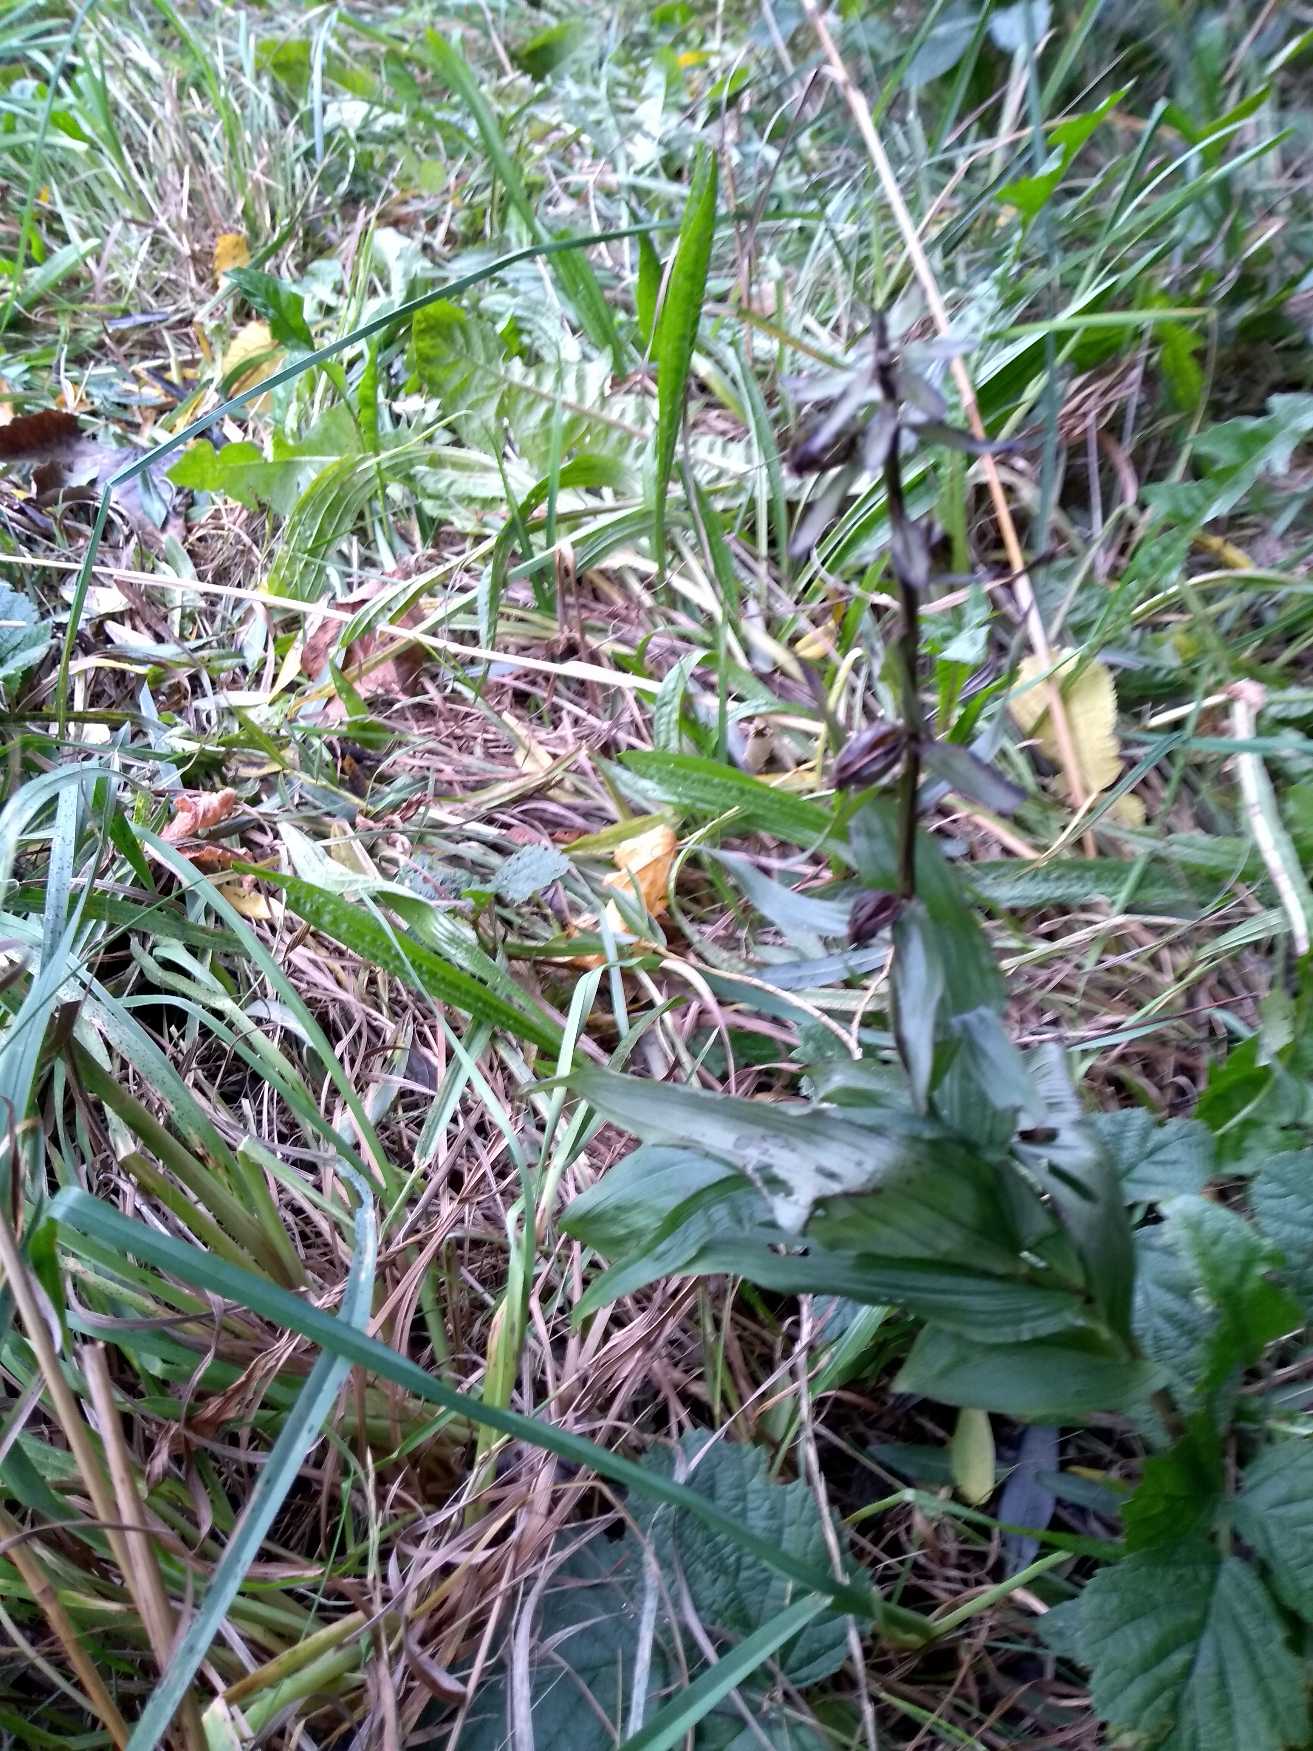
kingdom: Plantae
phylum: Tracheophyta
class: Liliopsida
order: Asparagales
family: Orchidaceae
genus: Epipactis
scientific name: Epipactis helleborine
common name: Skov-hullæbe
